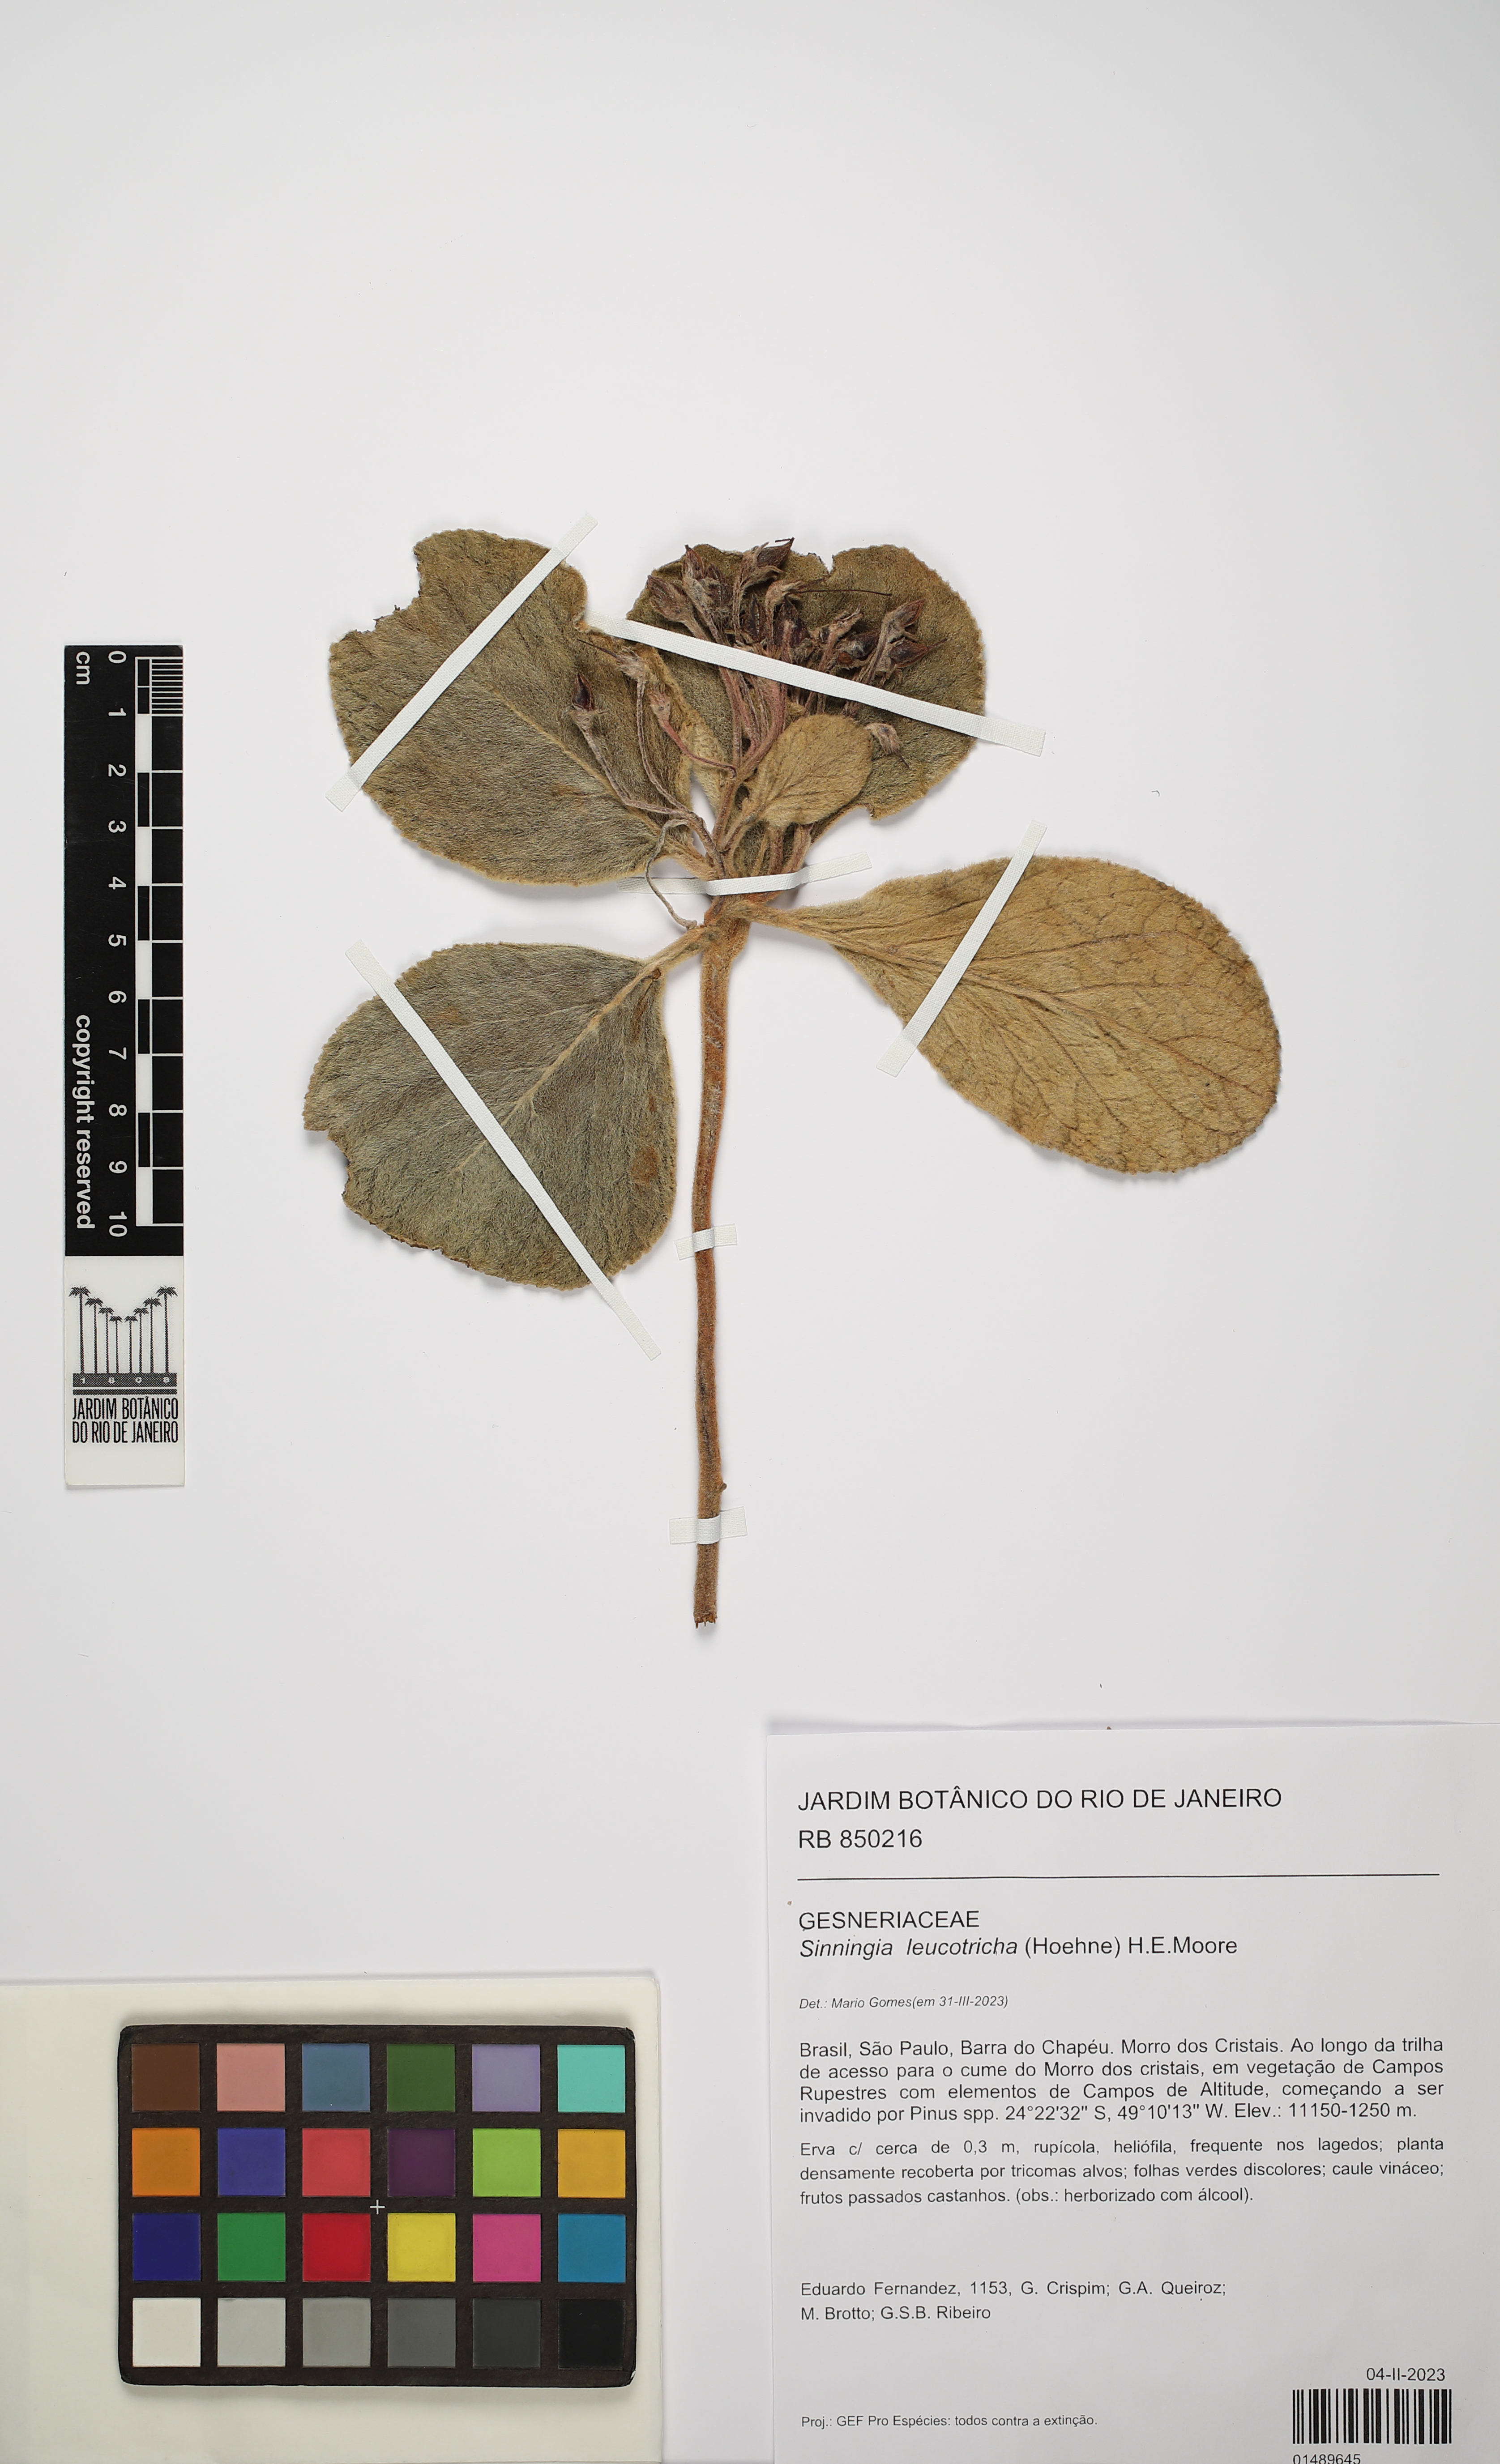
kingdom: Plantae
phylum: Tracheophyta
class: Magnoliopsida
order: Lamiales
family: Gesneriaceae
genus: Sinningia
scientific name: Sinningia leucotricha
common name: Brazilian edelweiss
